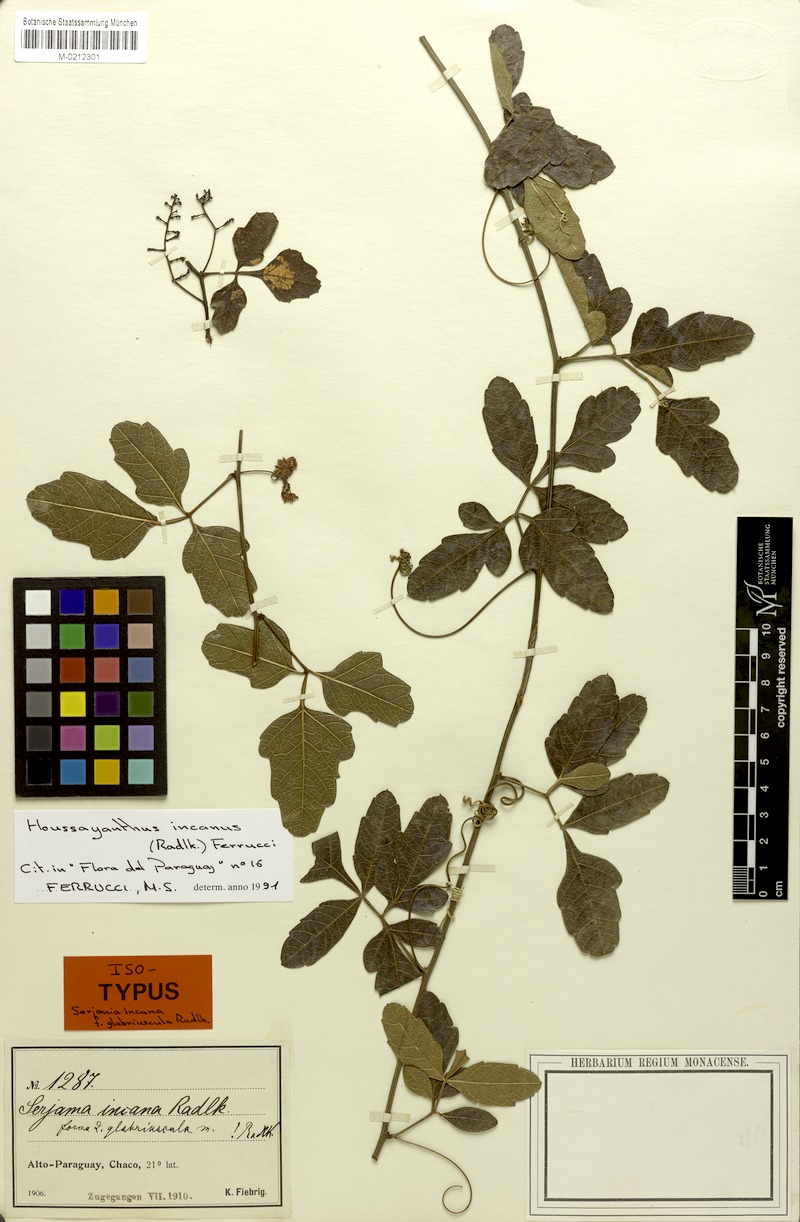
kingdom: Plantae
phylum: Tracheophyta
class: Magnoliopsida
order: Sapindales
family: Sapindaceae
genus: Serjania
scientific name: Serjania incana
